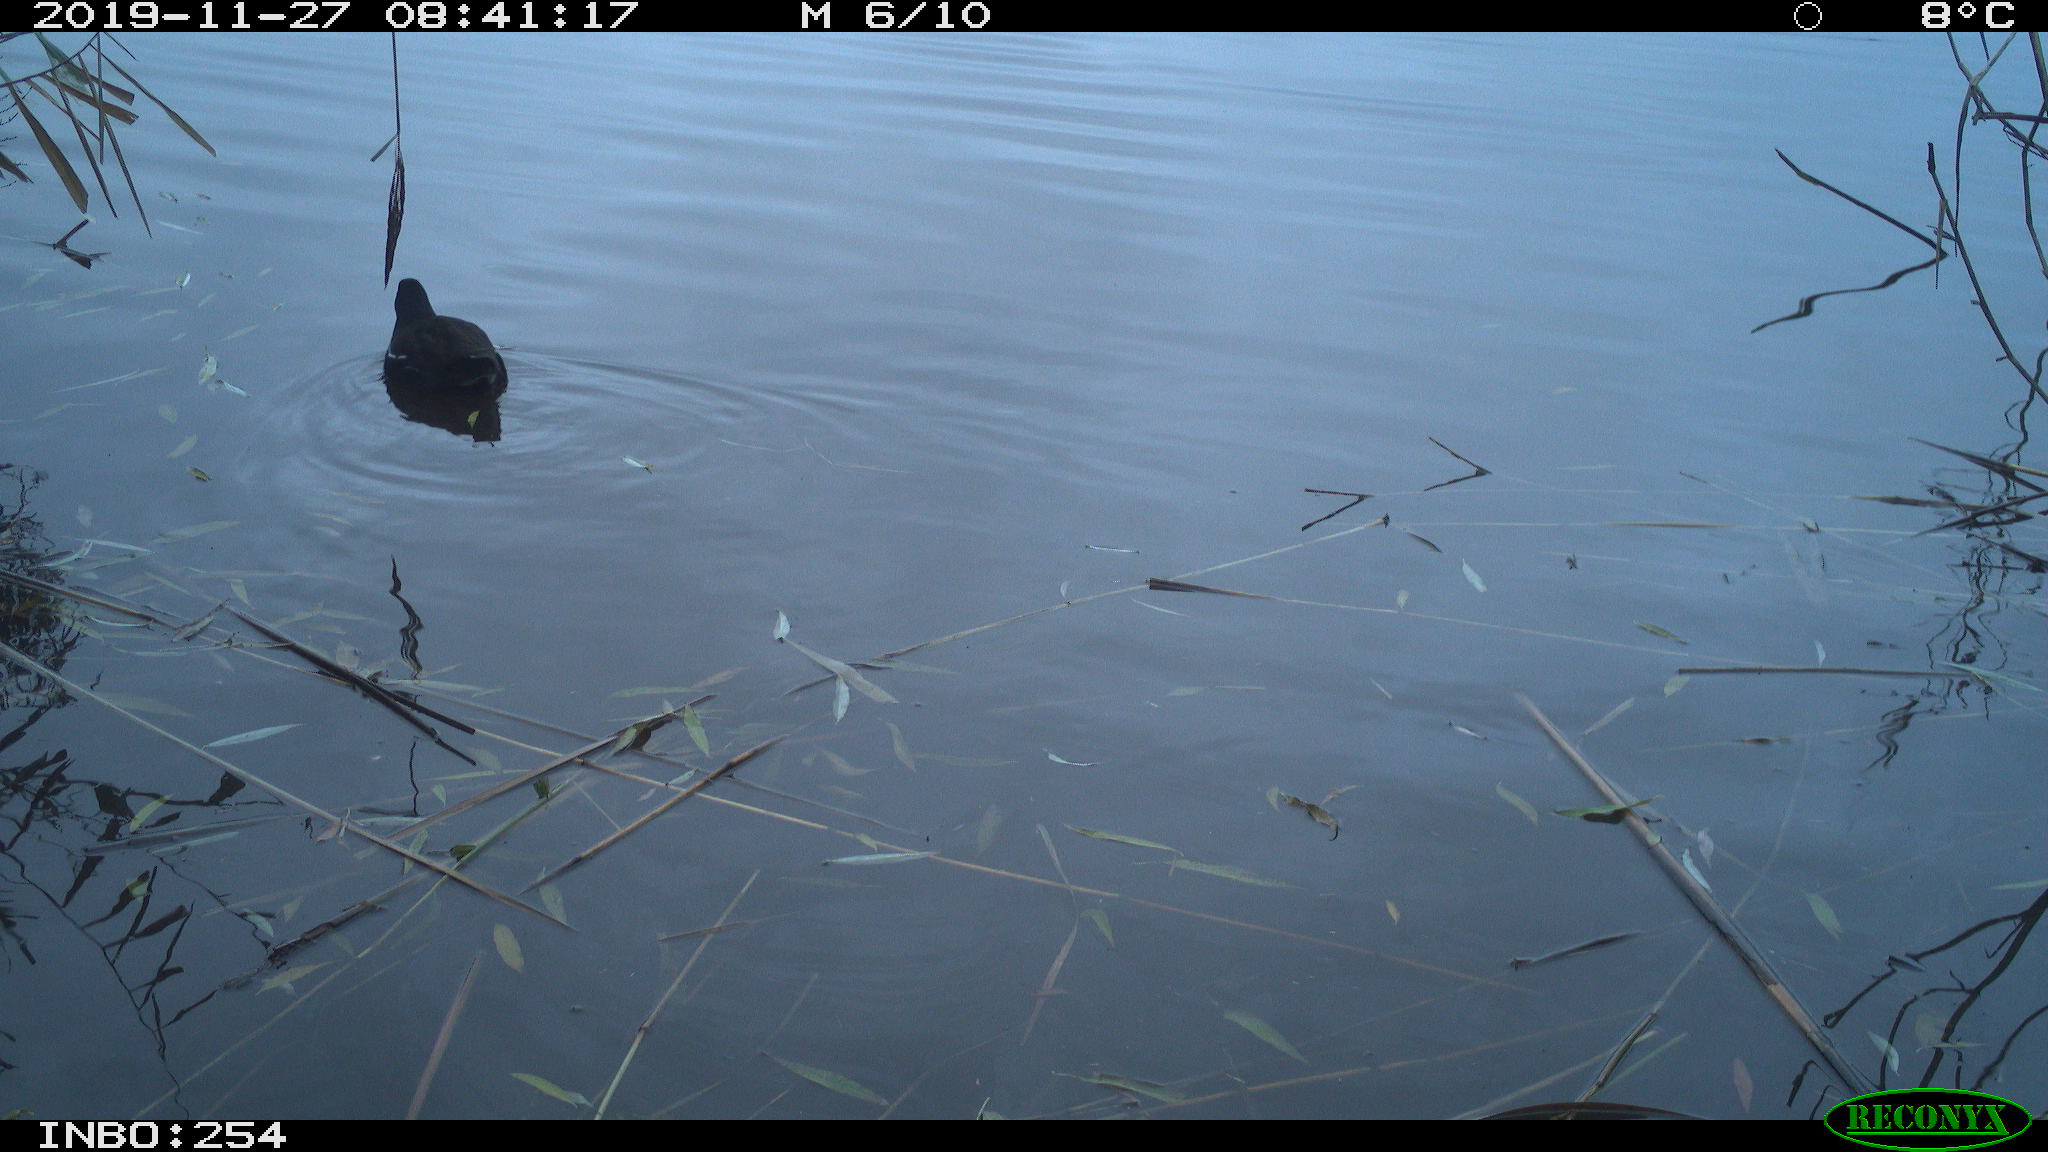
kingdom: Animalia
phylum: Chordata
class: Aves
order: Gruiformes
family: Rallidae
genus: Gallinula
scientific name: Gallinula chloropus
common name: Common moorhen
